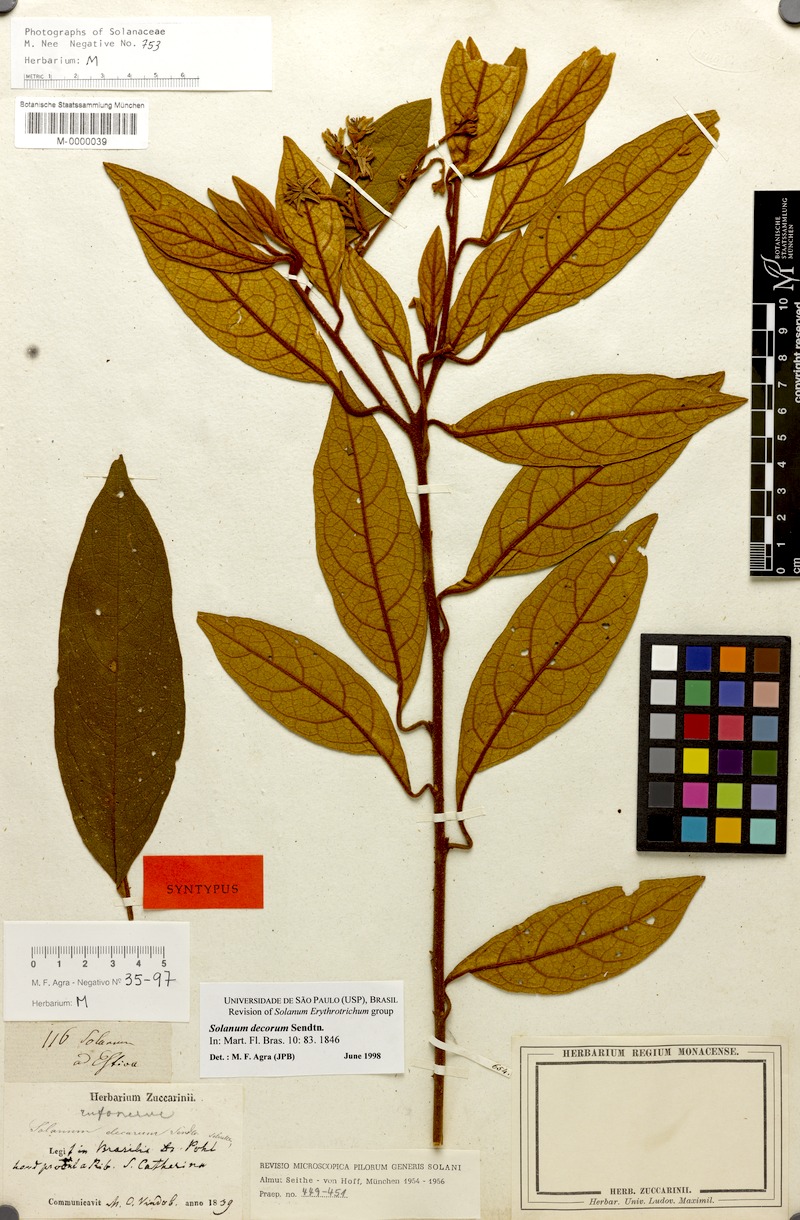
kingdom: Plantae
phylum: Tracheophyta
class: Magnoliopsida
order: Solanales
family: Solanaceae
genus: Solanum
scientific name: Solanum decorum
